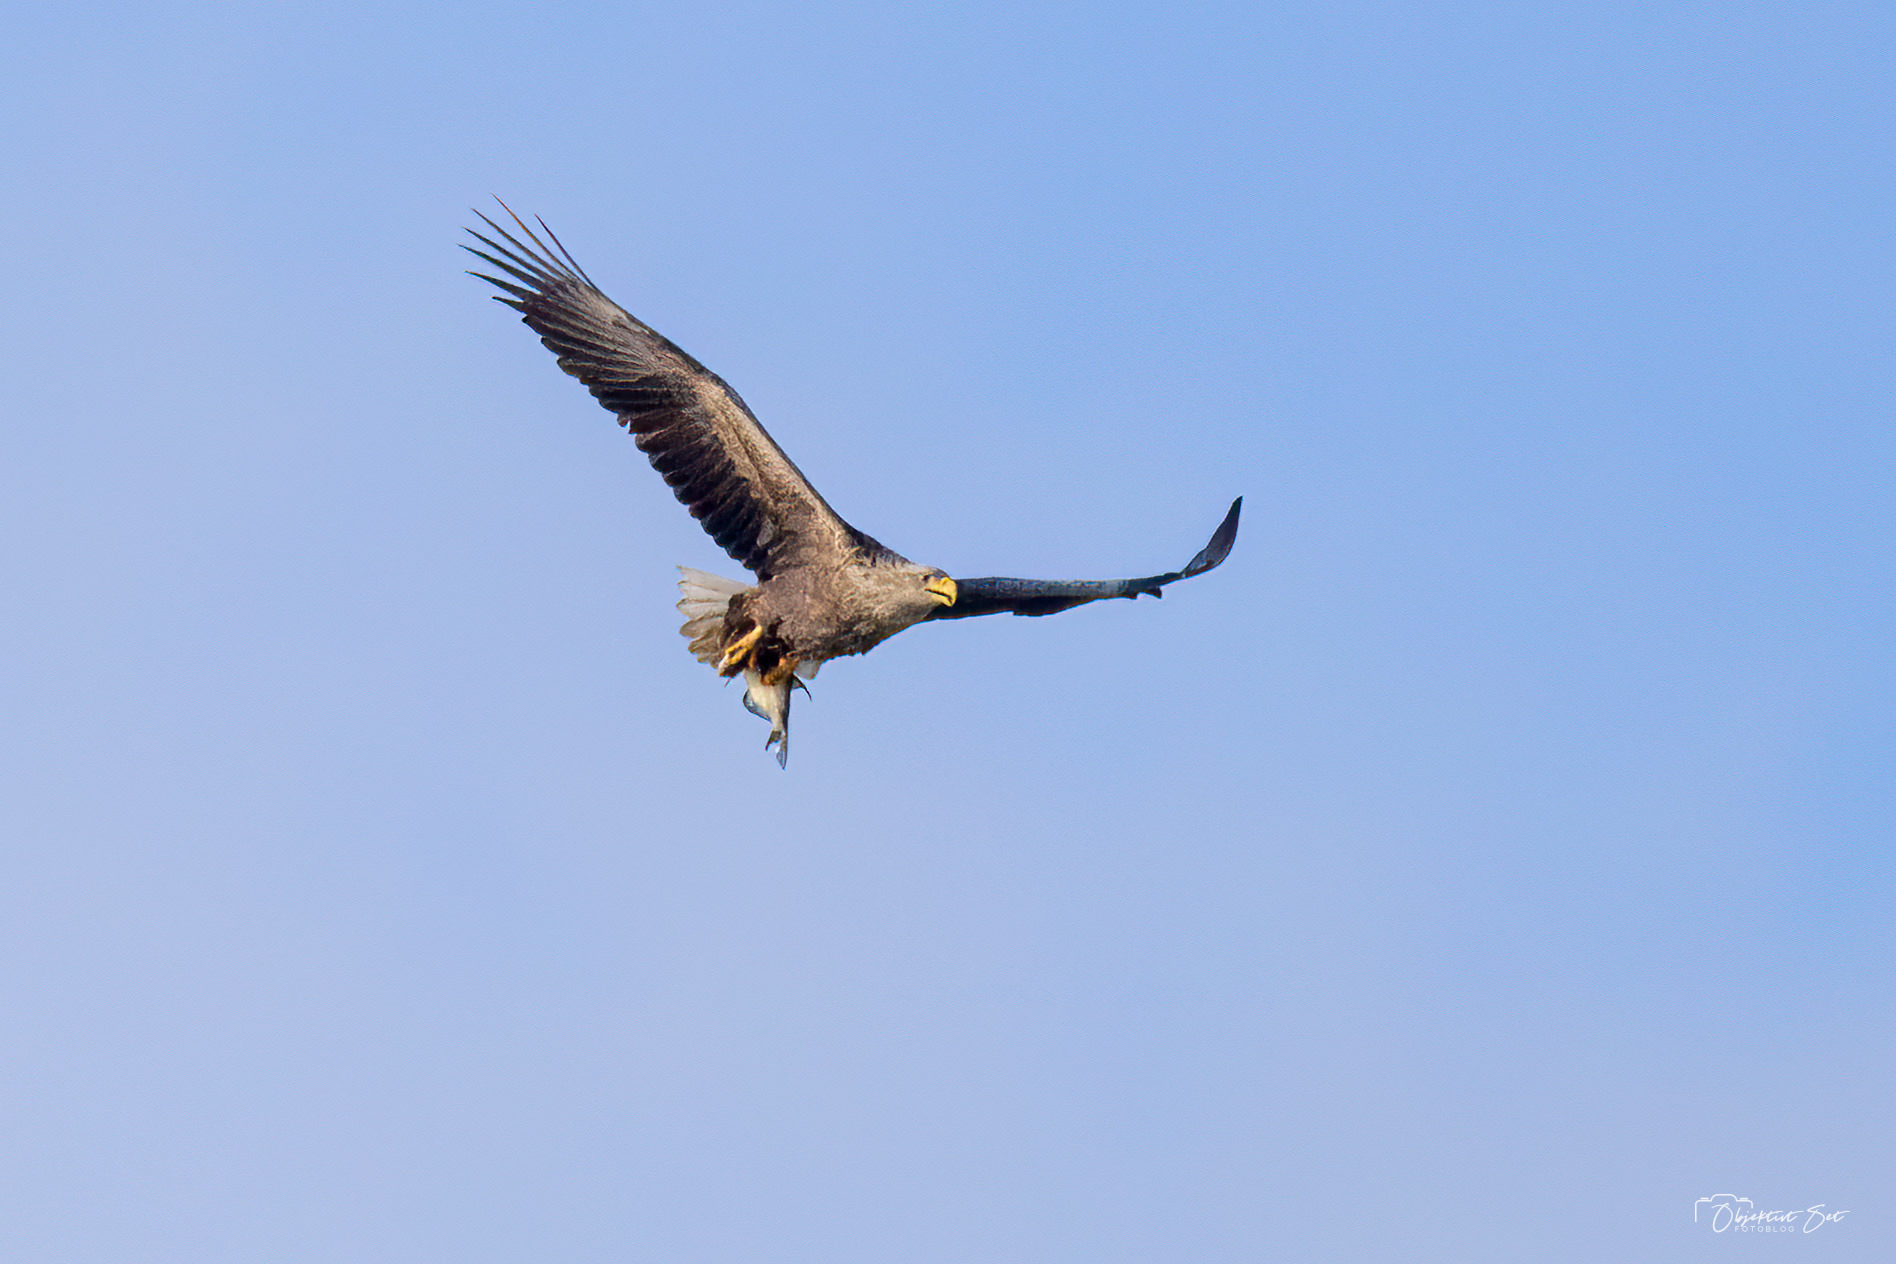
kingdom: Animalia
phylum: Chordata
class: Aves
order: Accipitriformes
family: Accipitridae
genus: Haliaeetus
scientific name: Haliaeetus albicilla
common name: Havørn
